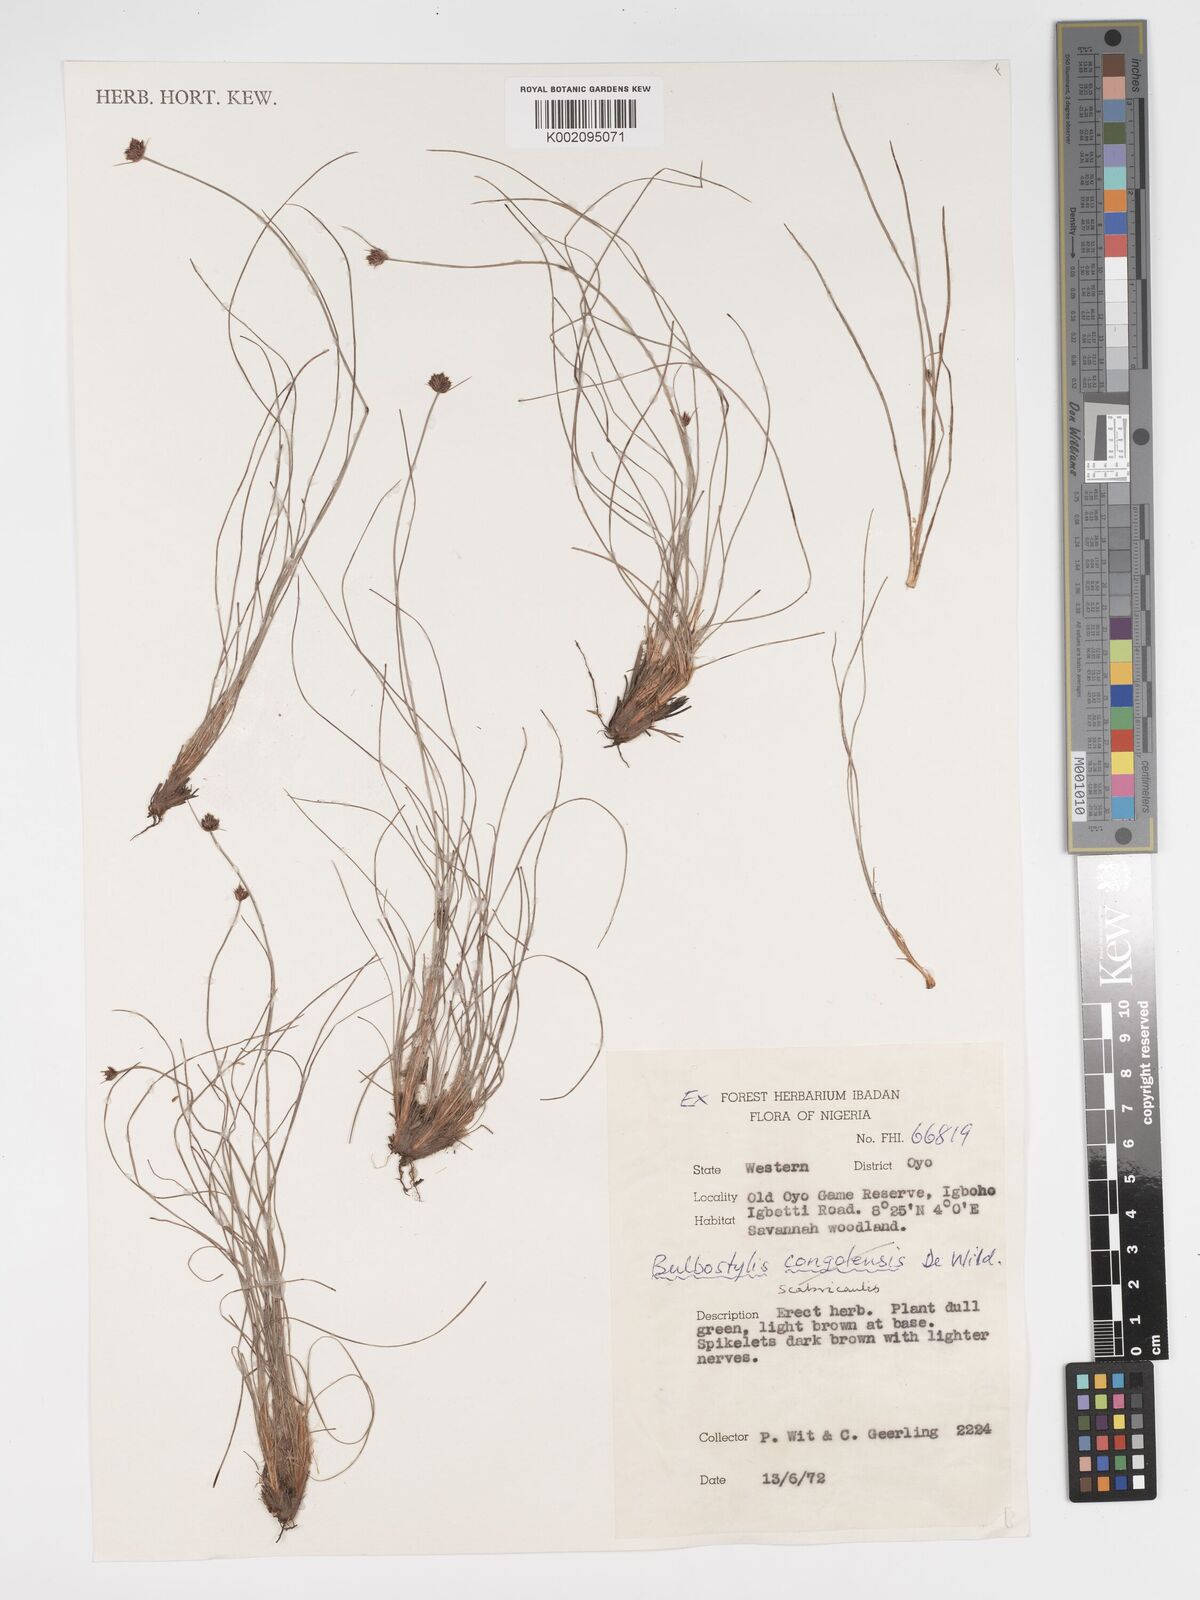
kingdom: Plantae
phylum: Tracheophyta
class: Liliopsida
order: Poales
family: Cyperaceae
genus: Bulbostylis
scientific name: Bulbostylis scabricaulis
